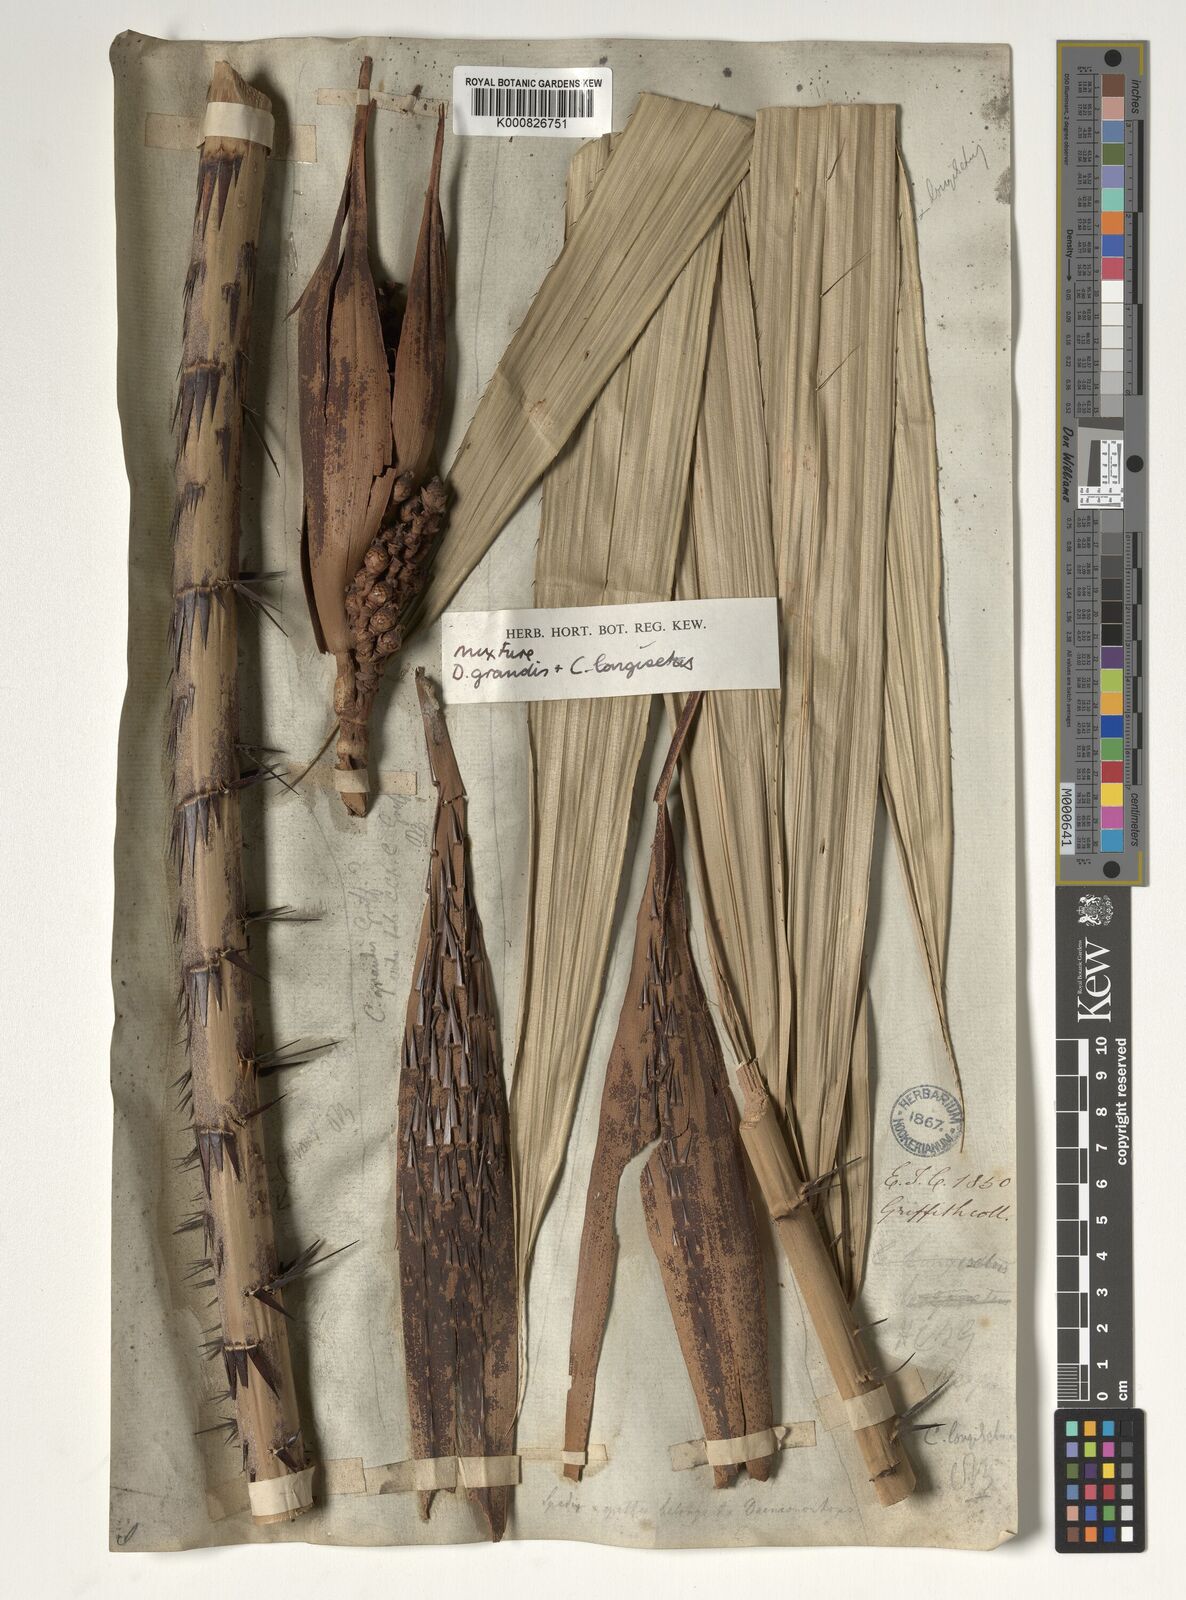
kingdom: Plantae
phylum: Tracheophyta
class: Liliopsida
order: Arecales
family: Arecaceae
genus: Calamus
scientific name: Calamus melanochaetes
